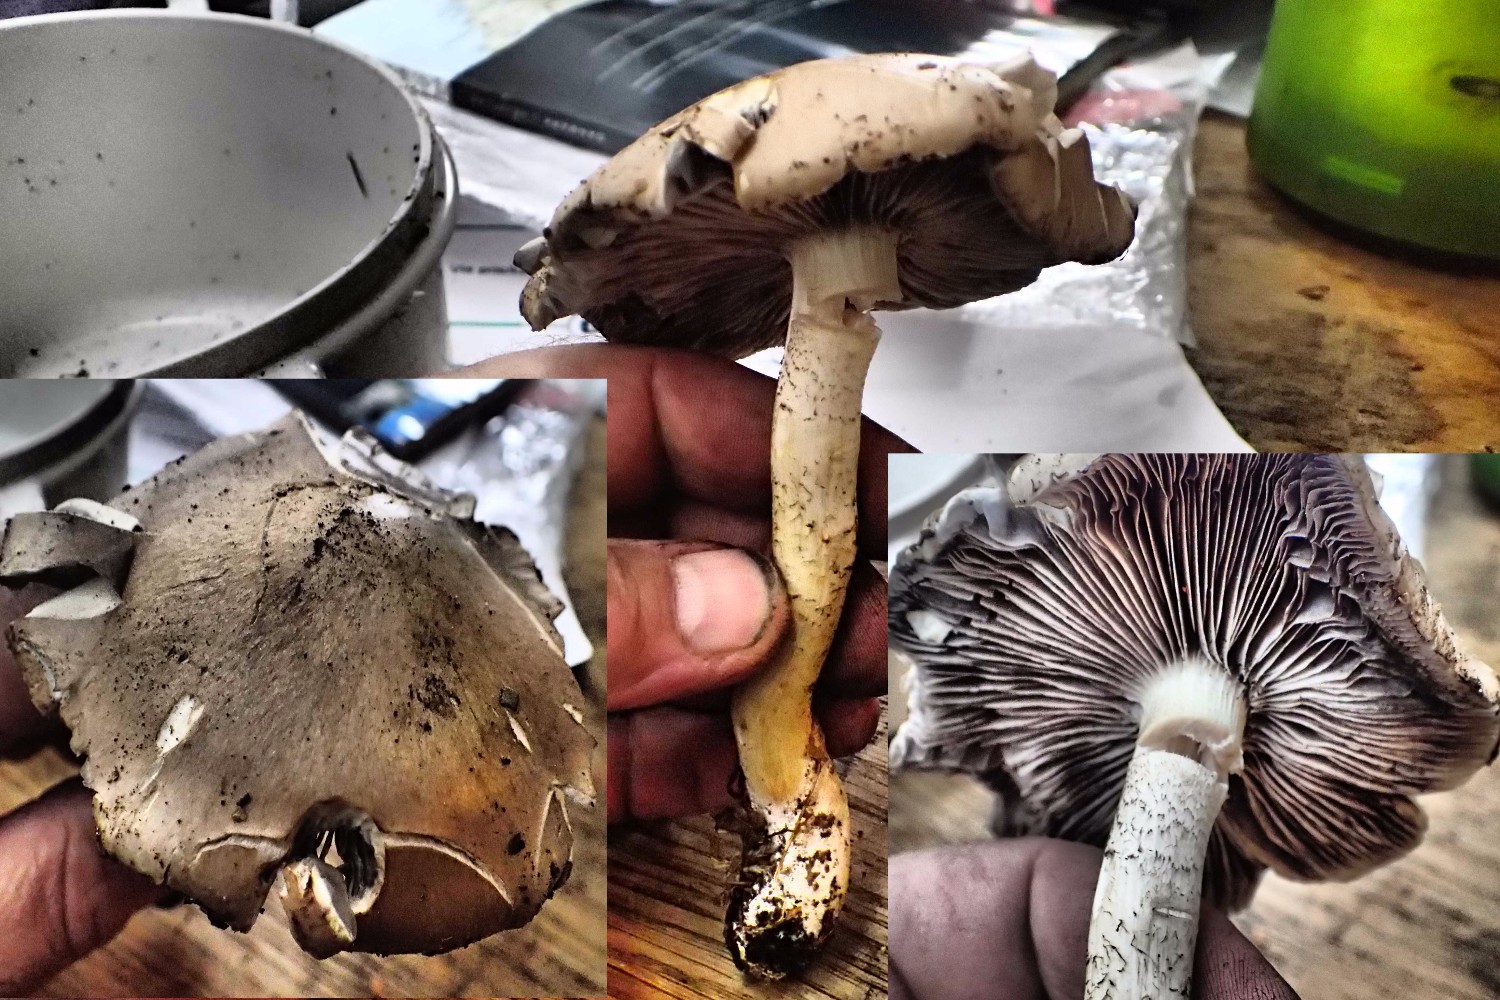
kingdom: Fungi
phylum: Basidiomycota
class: Agaricomycetes
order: Agaricales
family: Strophariaceae
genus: Stropharia
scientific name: Stropharia hornemannii
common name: nordisk bredblad
